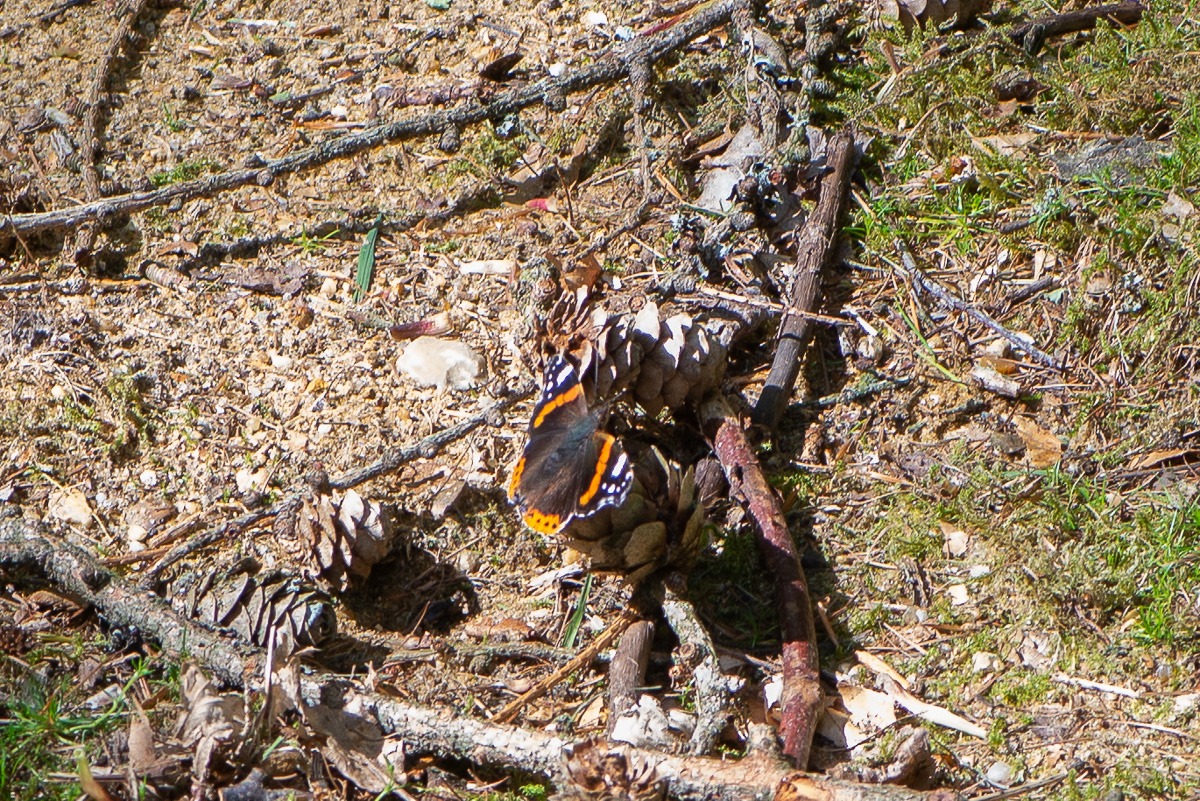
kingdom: Animalia
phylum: Arthropoda
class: Insecta
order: Lepidoptera
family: Nymphalidae
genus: Vanessa
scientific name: Vanessa atalanta
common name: Admiral
